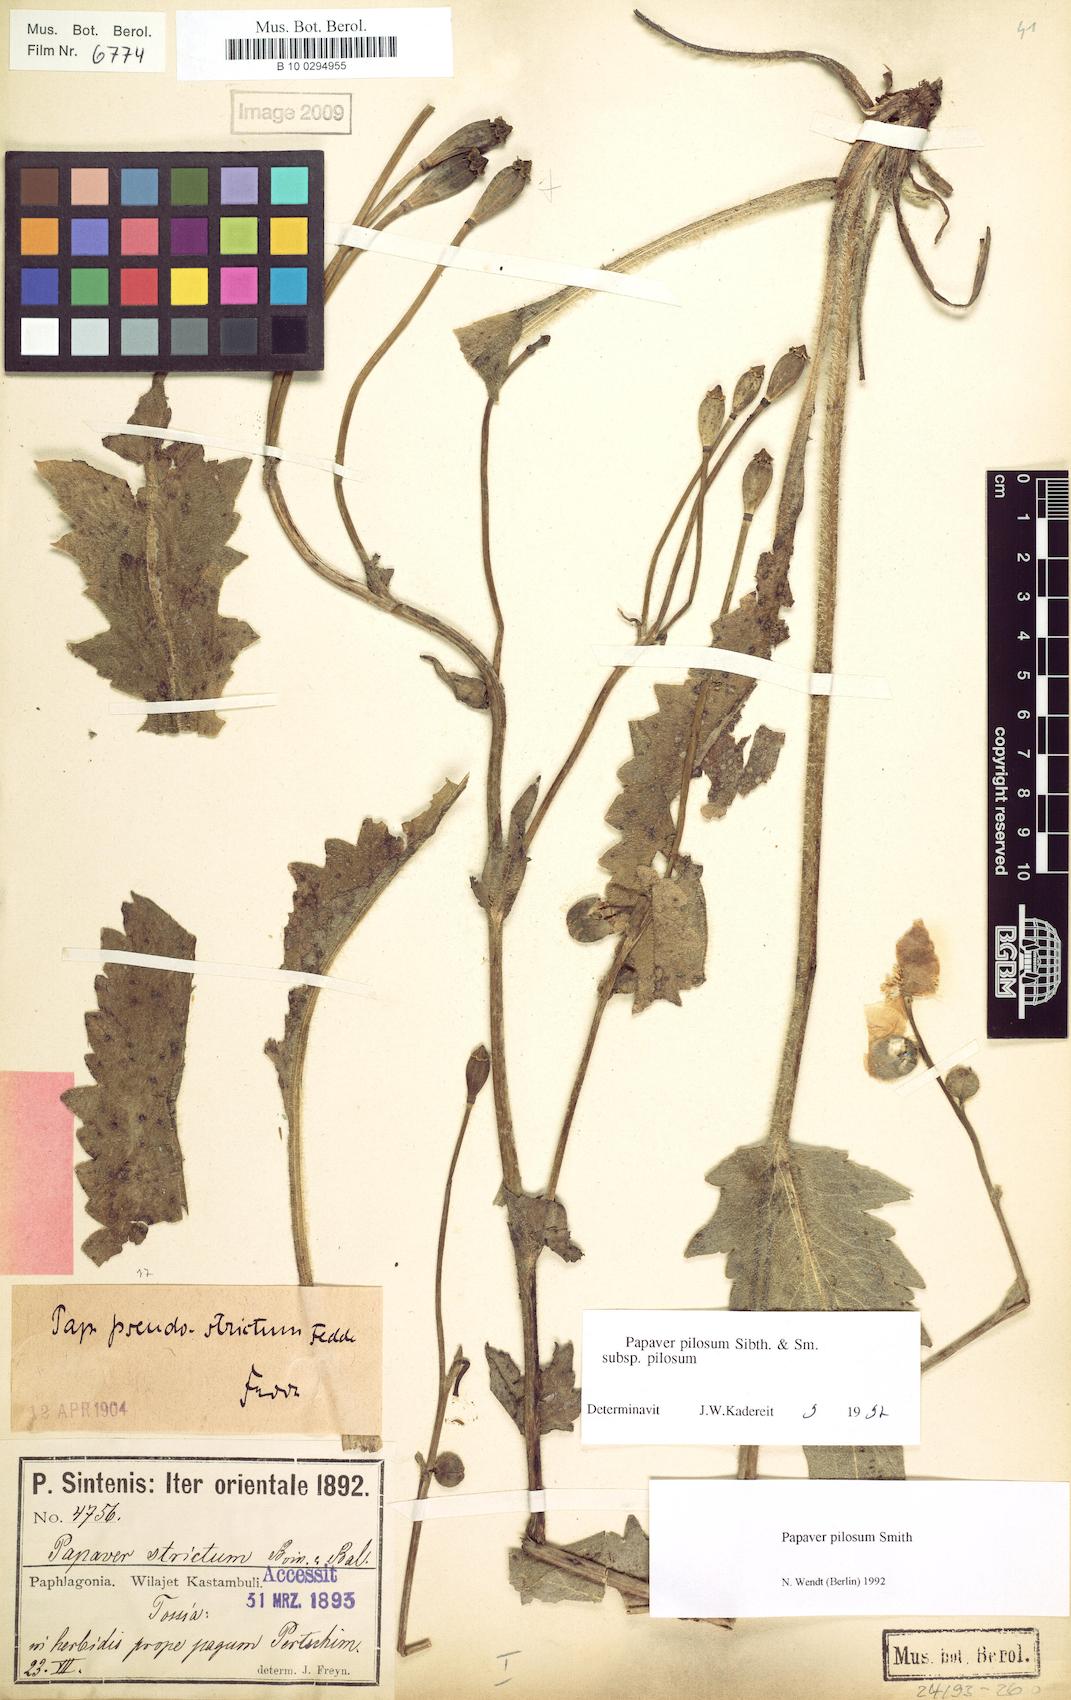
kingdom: Plantae
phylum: Tracheophyta
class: Magnoliopsida
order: Ranunculales
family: Papaveraceae
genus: Papaver
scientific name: Papaver pilosum
